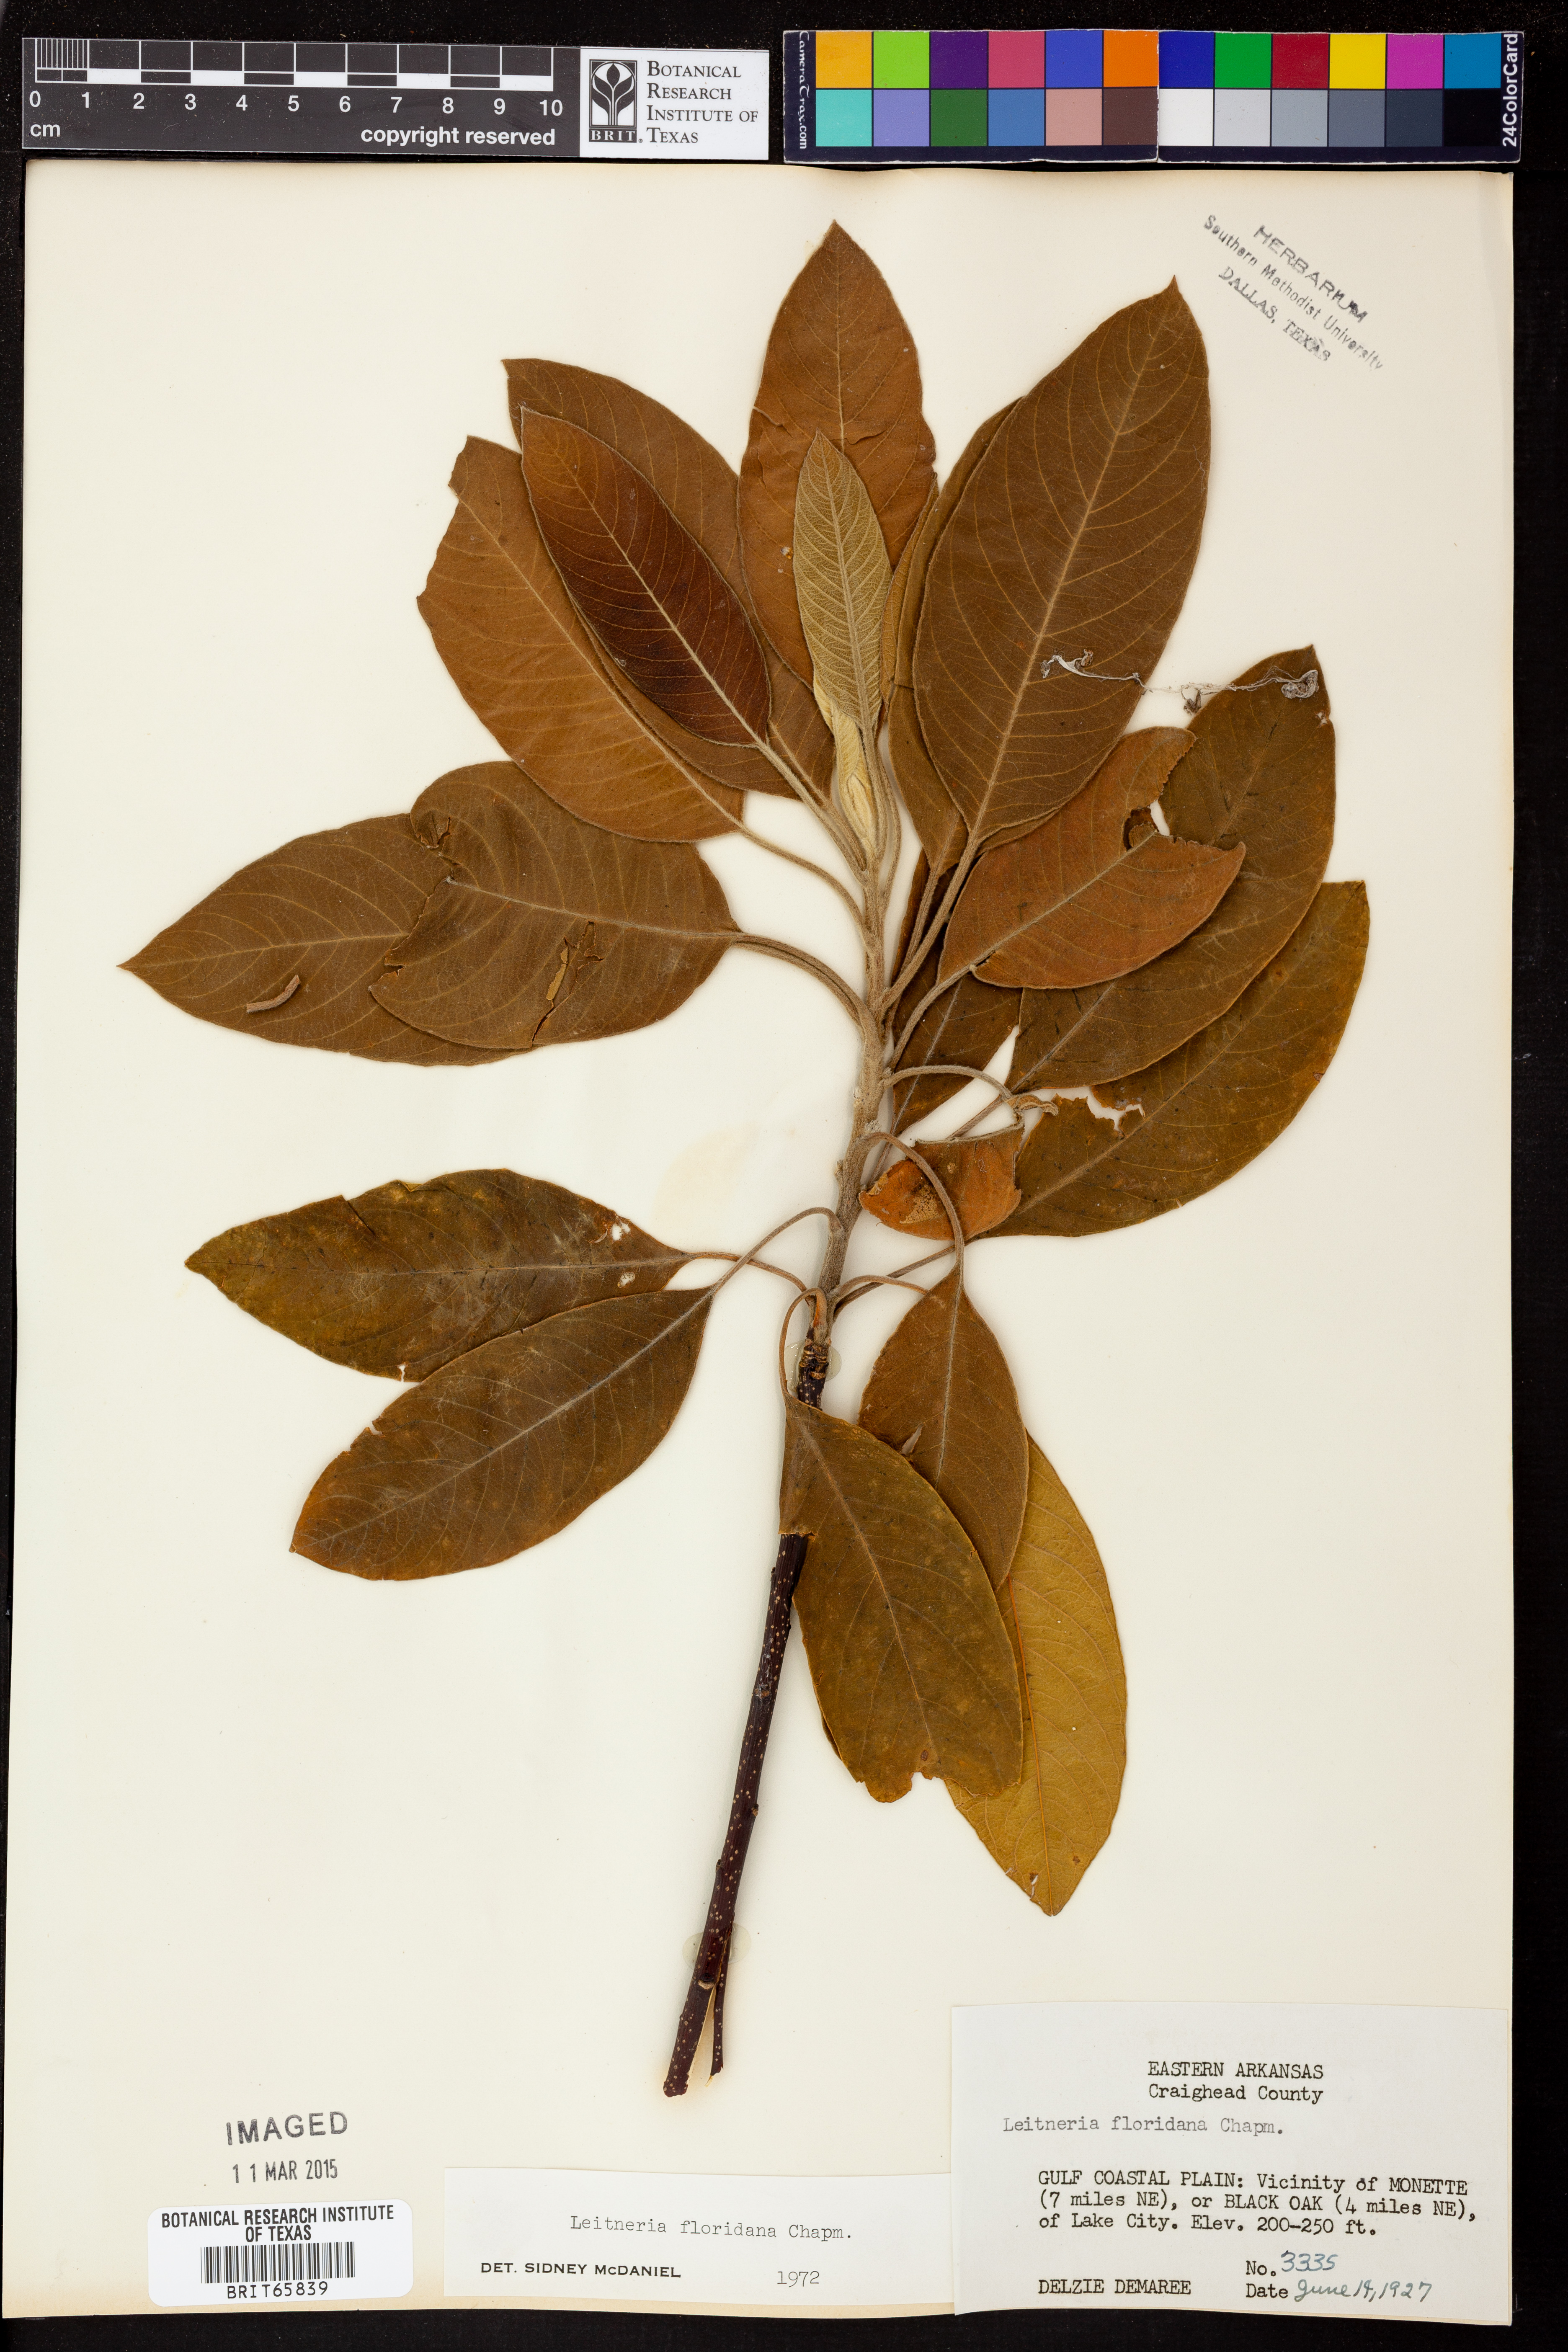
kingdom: Plantae
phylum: Tracheophyta
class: Magnoliopsida
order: Sapindales
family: Simaroubaceae
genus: Leitneria
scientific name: Leitneria floridana
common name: Corkwood
